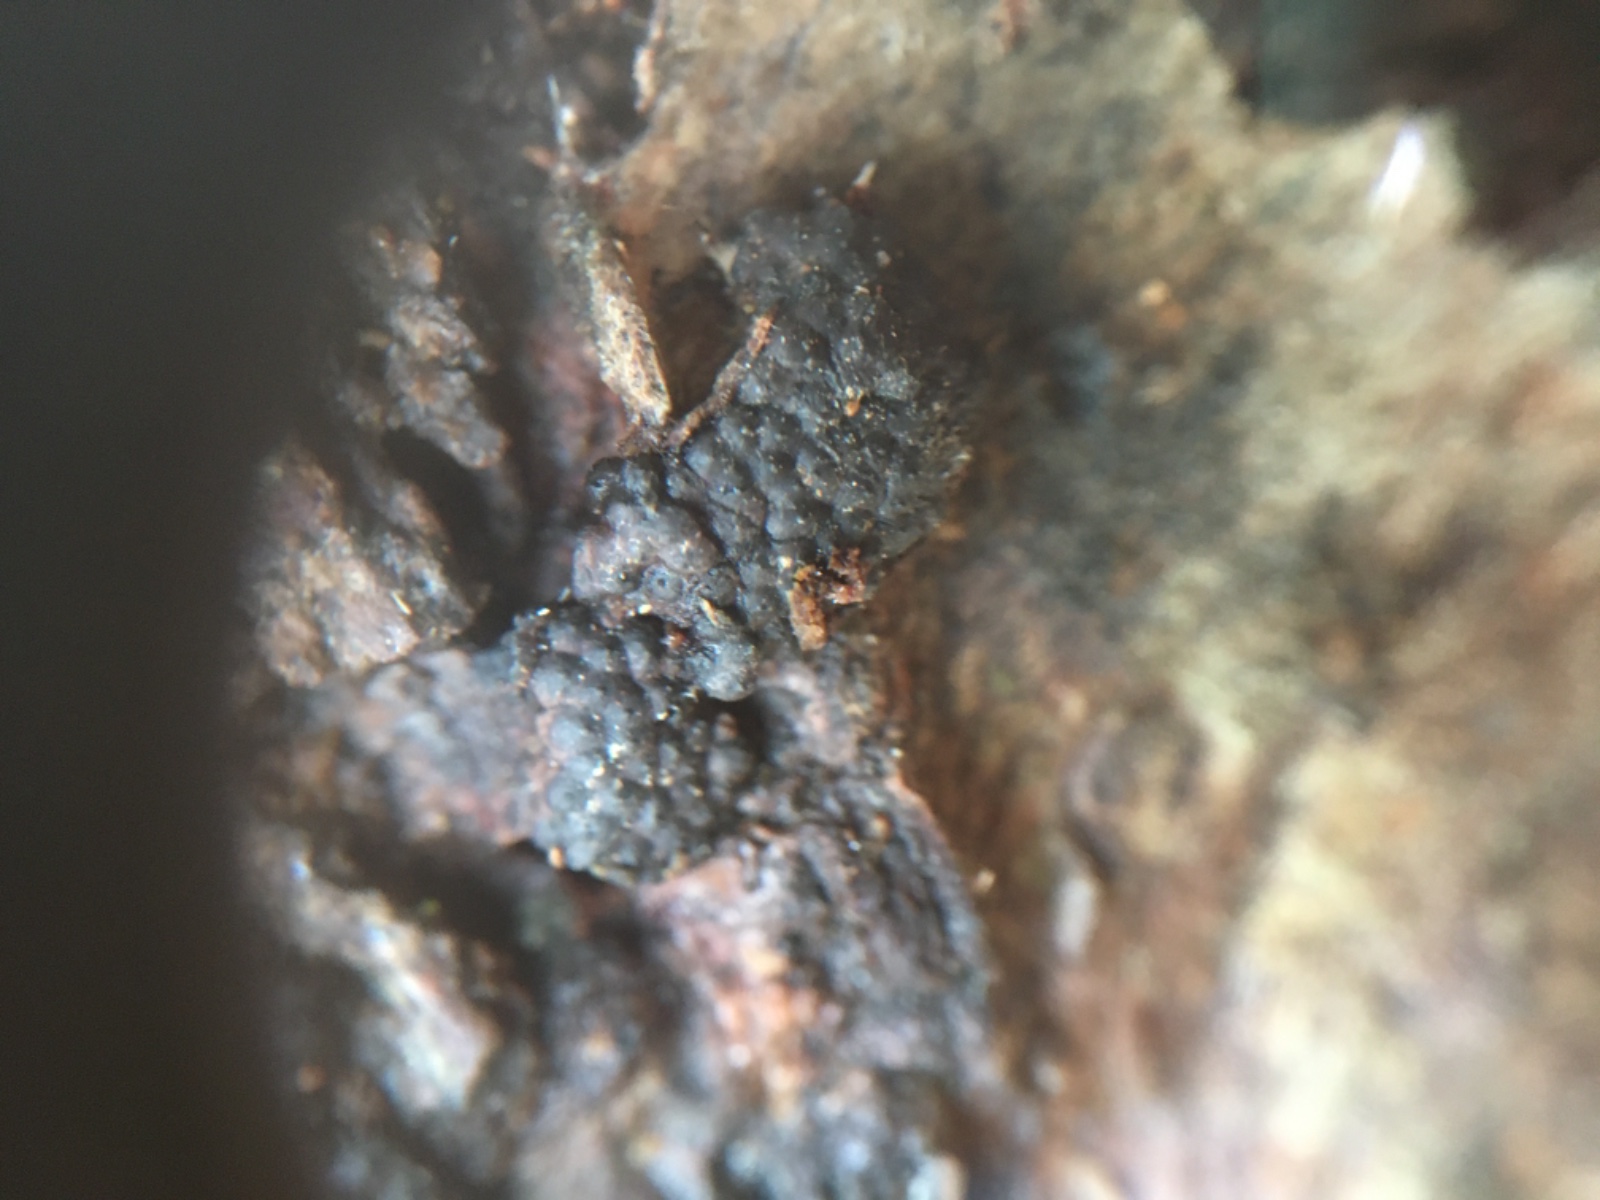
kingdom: Fungi
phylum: Ascomycota
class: Sordariomycetes
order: Xylariales
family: Hypoxylaceae
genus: Jackrogersella
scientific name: Jackrogersella multiformis
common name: foranderlig kulbær
